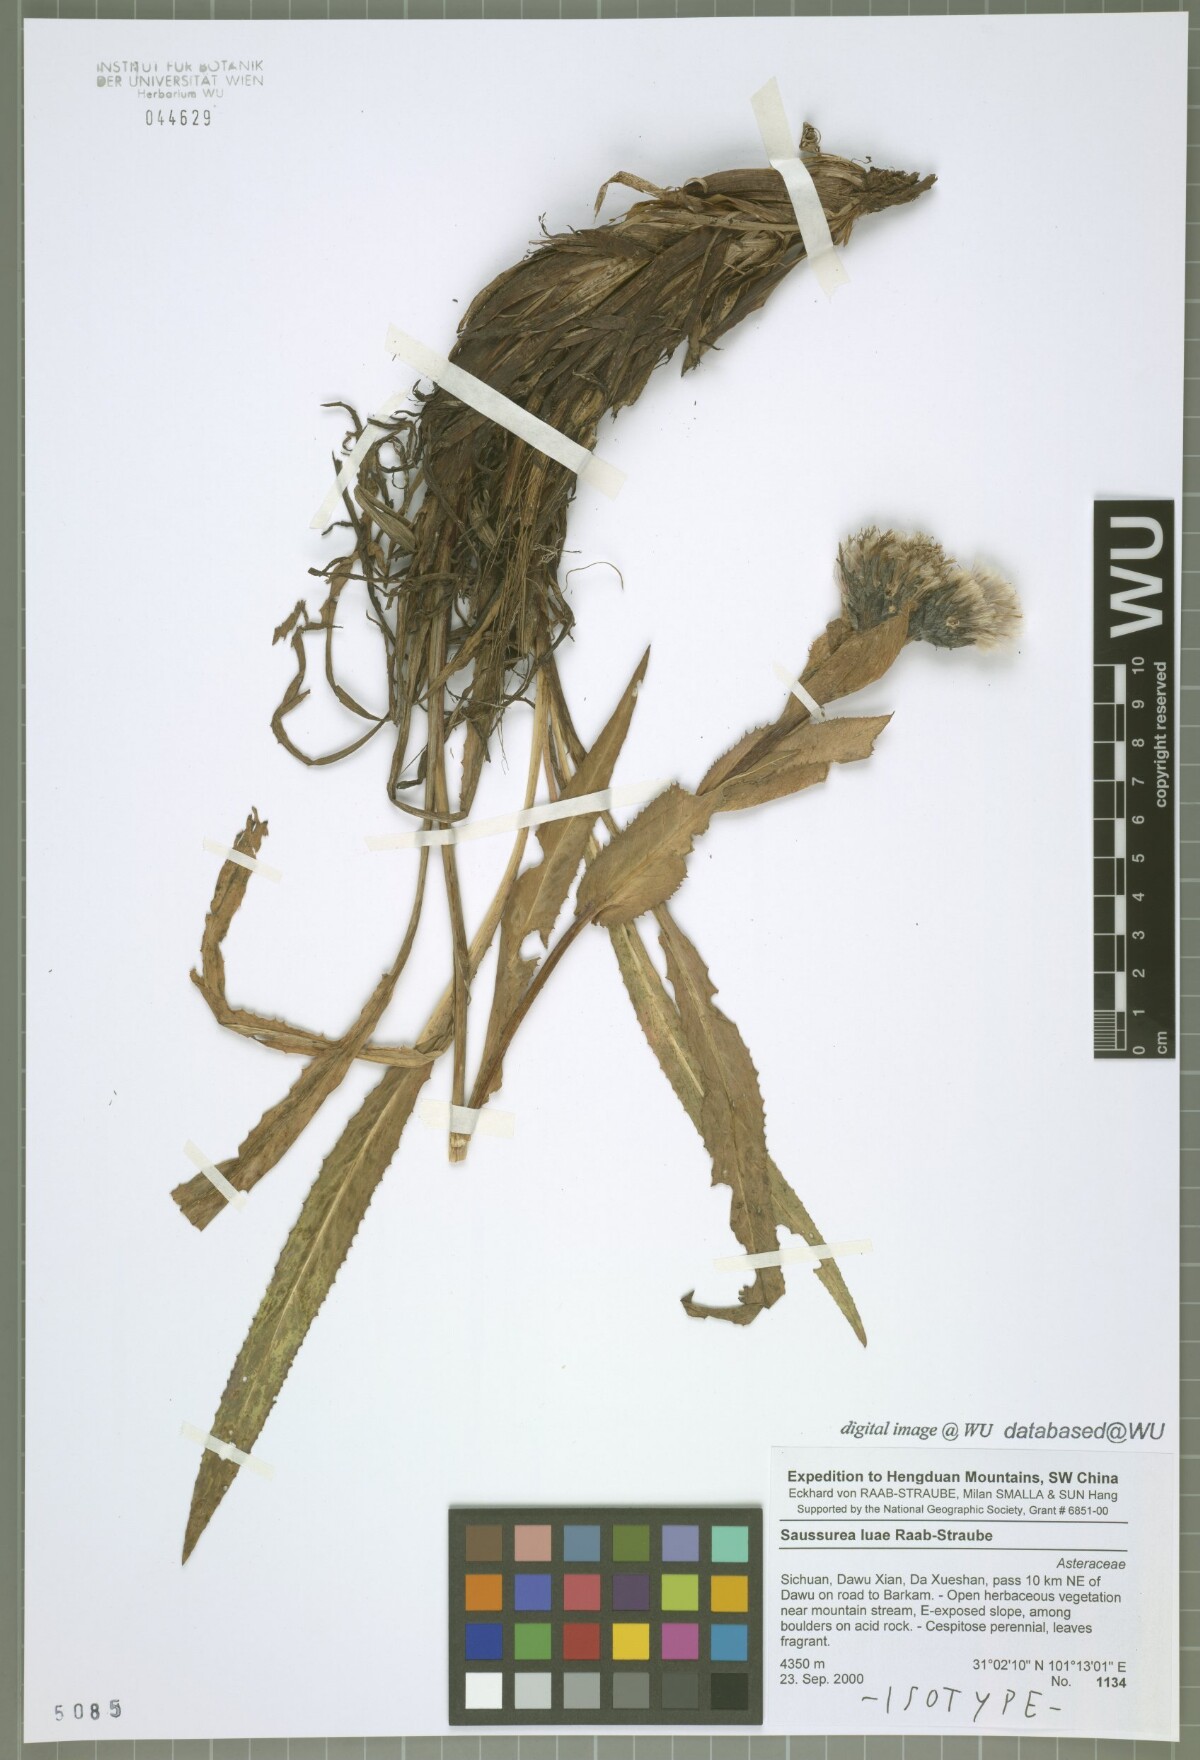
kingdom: Plantae
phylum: Tracheophyta
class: Magnoliopsida
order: Asterales
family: Asteraceae
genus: Saussurea
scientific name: Saussurea luae
